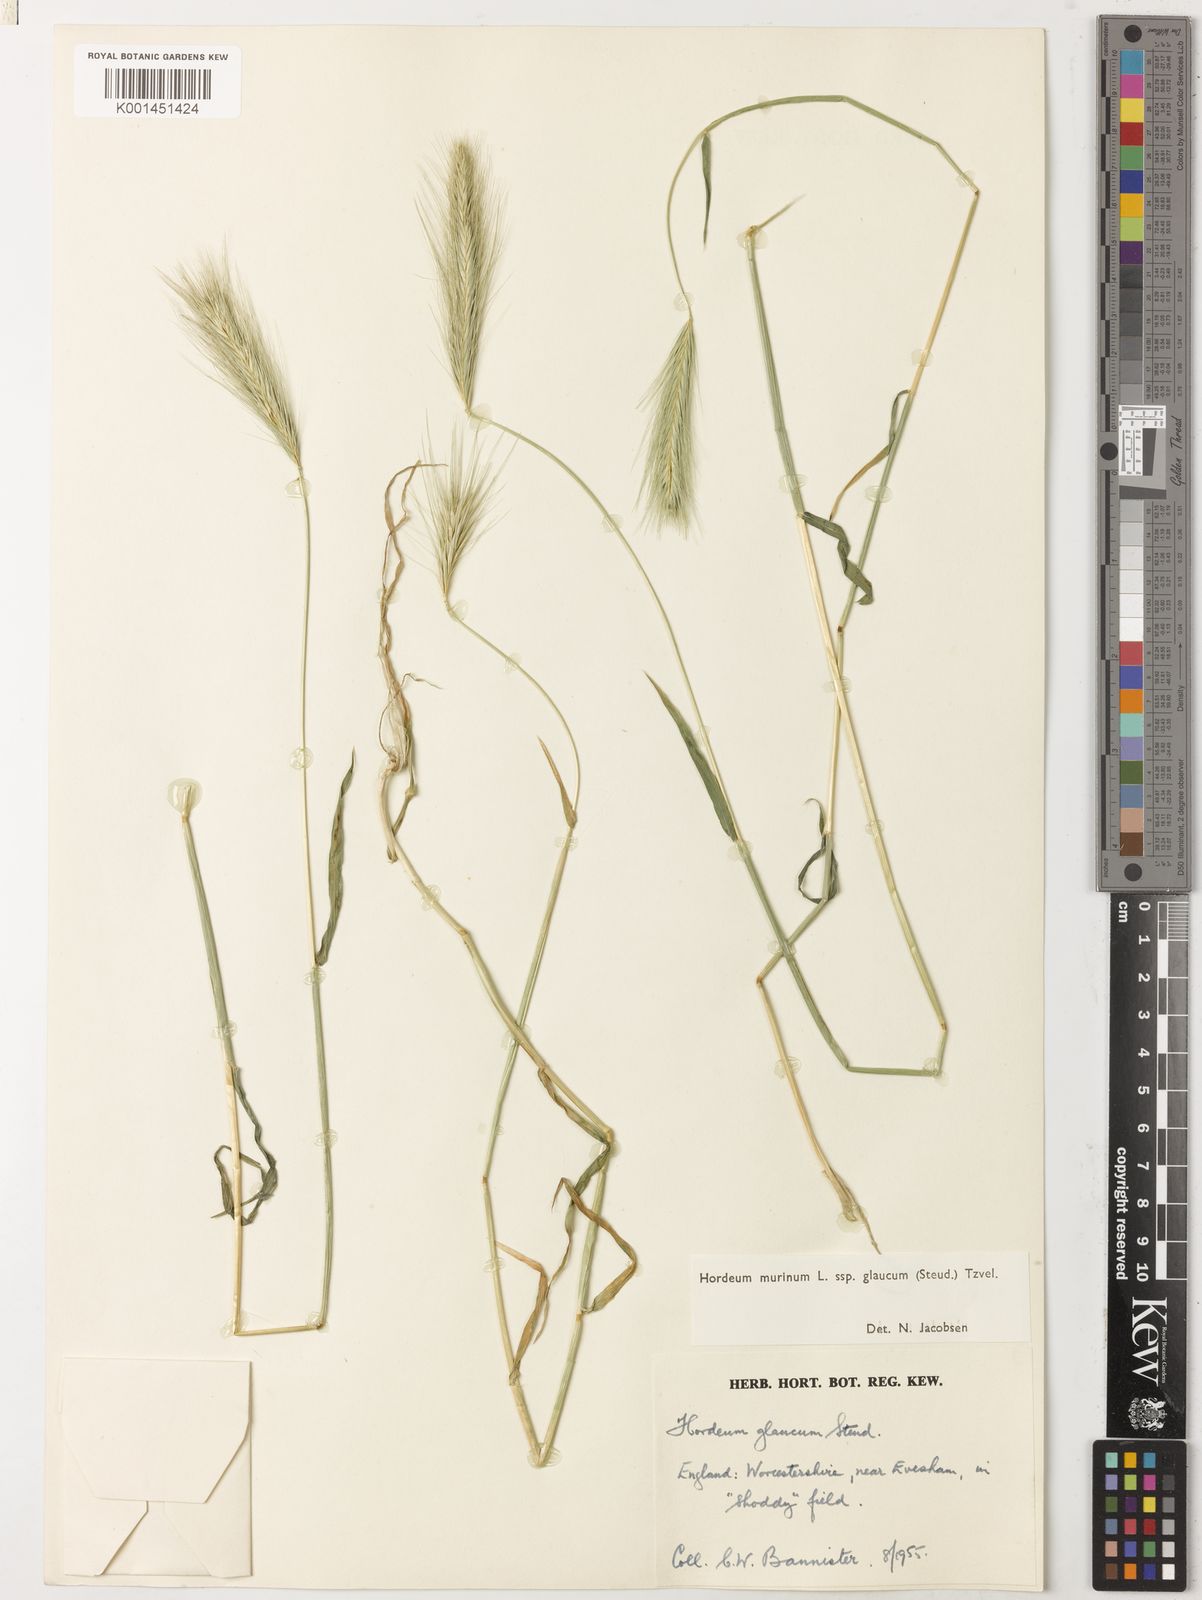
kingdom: Plantae
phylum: Tracheophyta
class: Liliopsida
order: Poales
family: Poaceae
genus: Hordeum
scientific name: Hordeum murinum
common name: Wall barley
